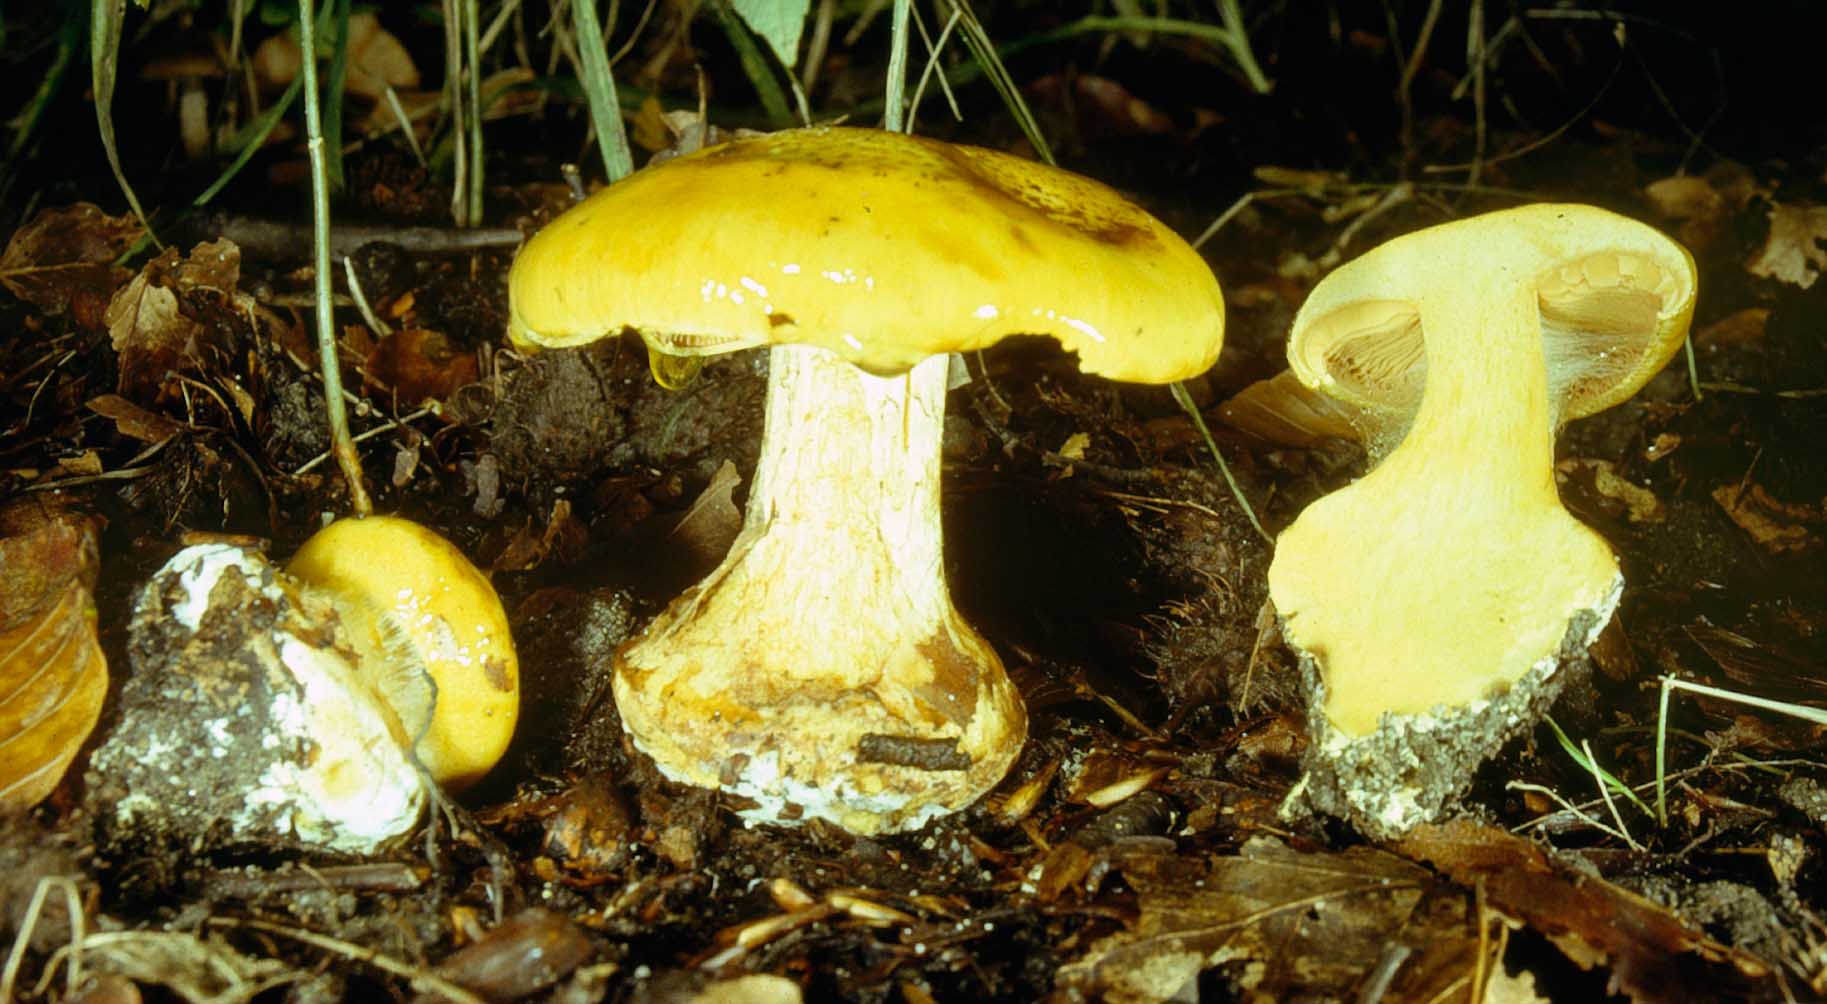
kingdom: Fungi
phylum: Basidiomycota
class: Agaricomycetes
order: Agaricales
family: Cortinariaceae
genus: Calonarius
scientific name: Calonarius alcalinophilus
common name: gyldenbrun slørhat
